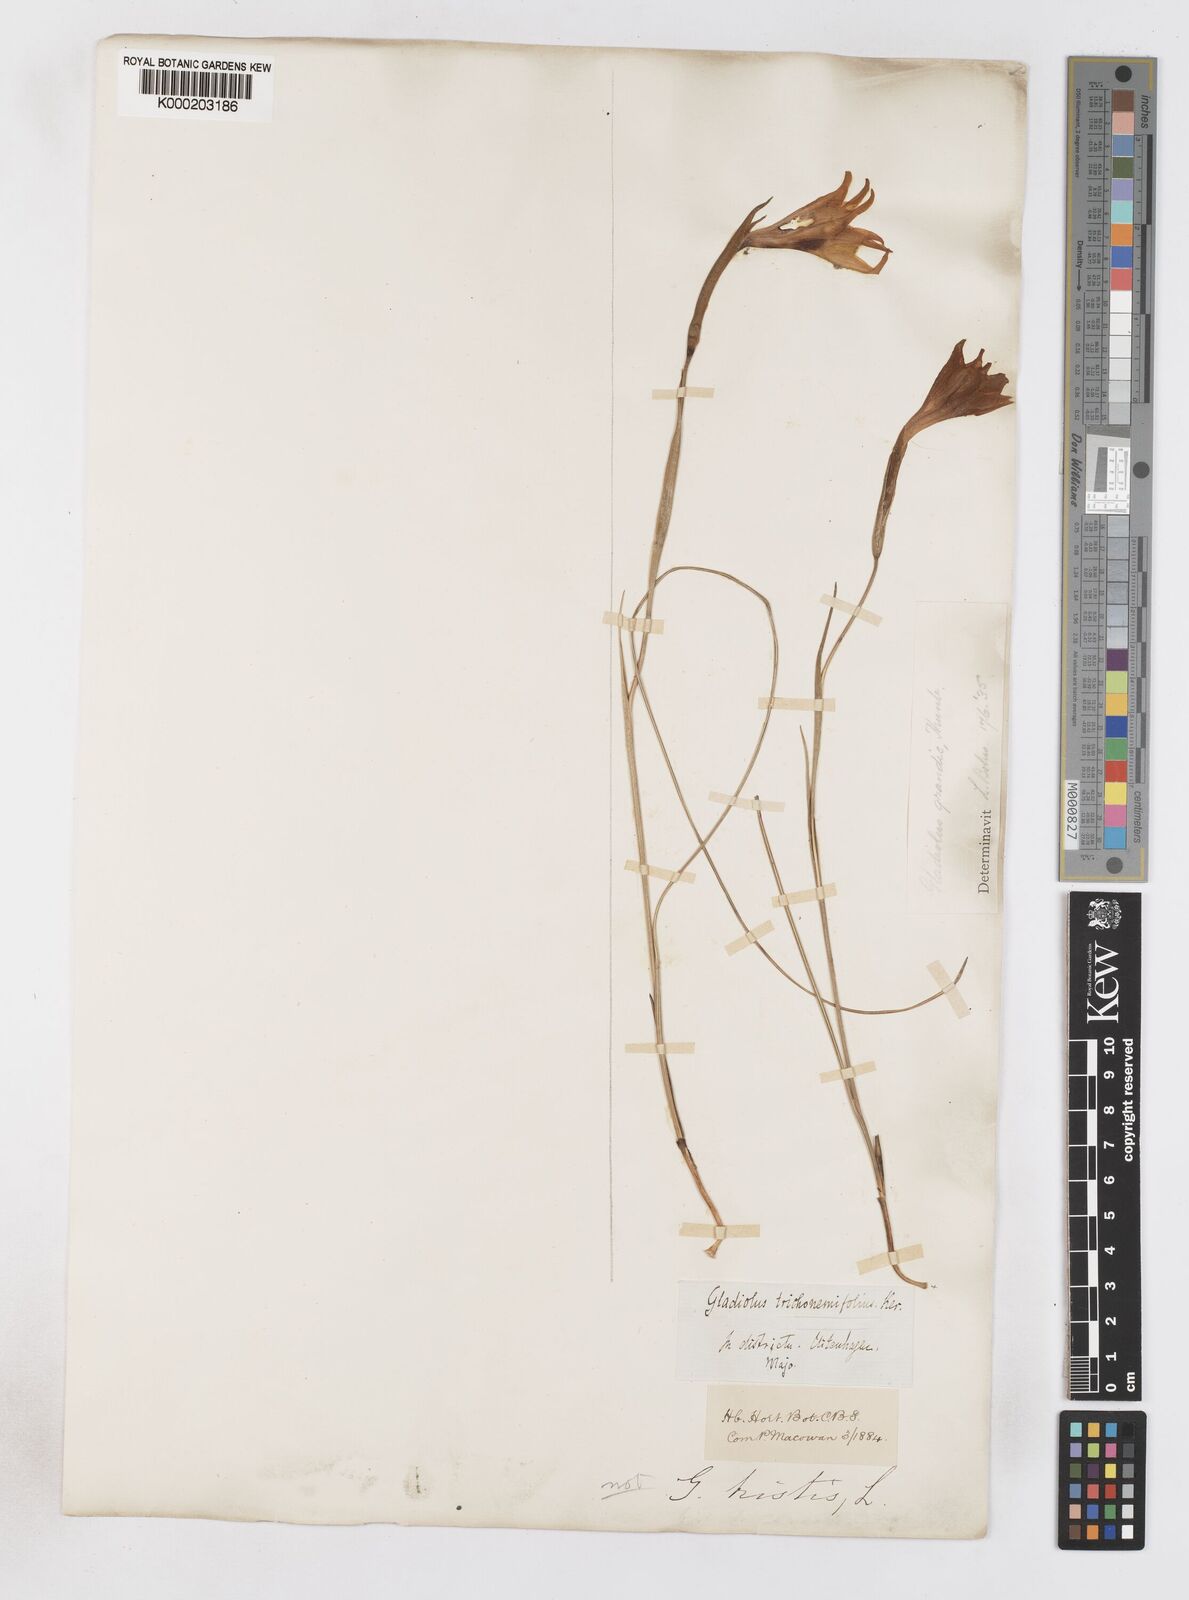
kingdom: Plantae
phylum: Tracheophyta
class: Liliopsida
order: Asparagales
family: Iridaceae
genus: Gladiolus
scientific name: Gladiolus liliaceus
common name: Large brown afrikaner
